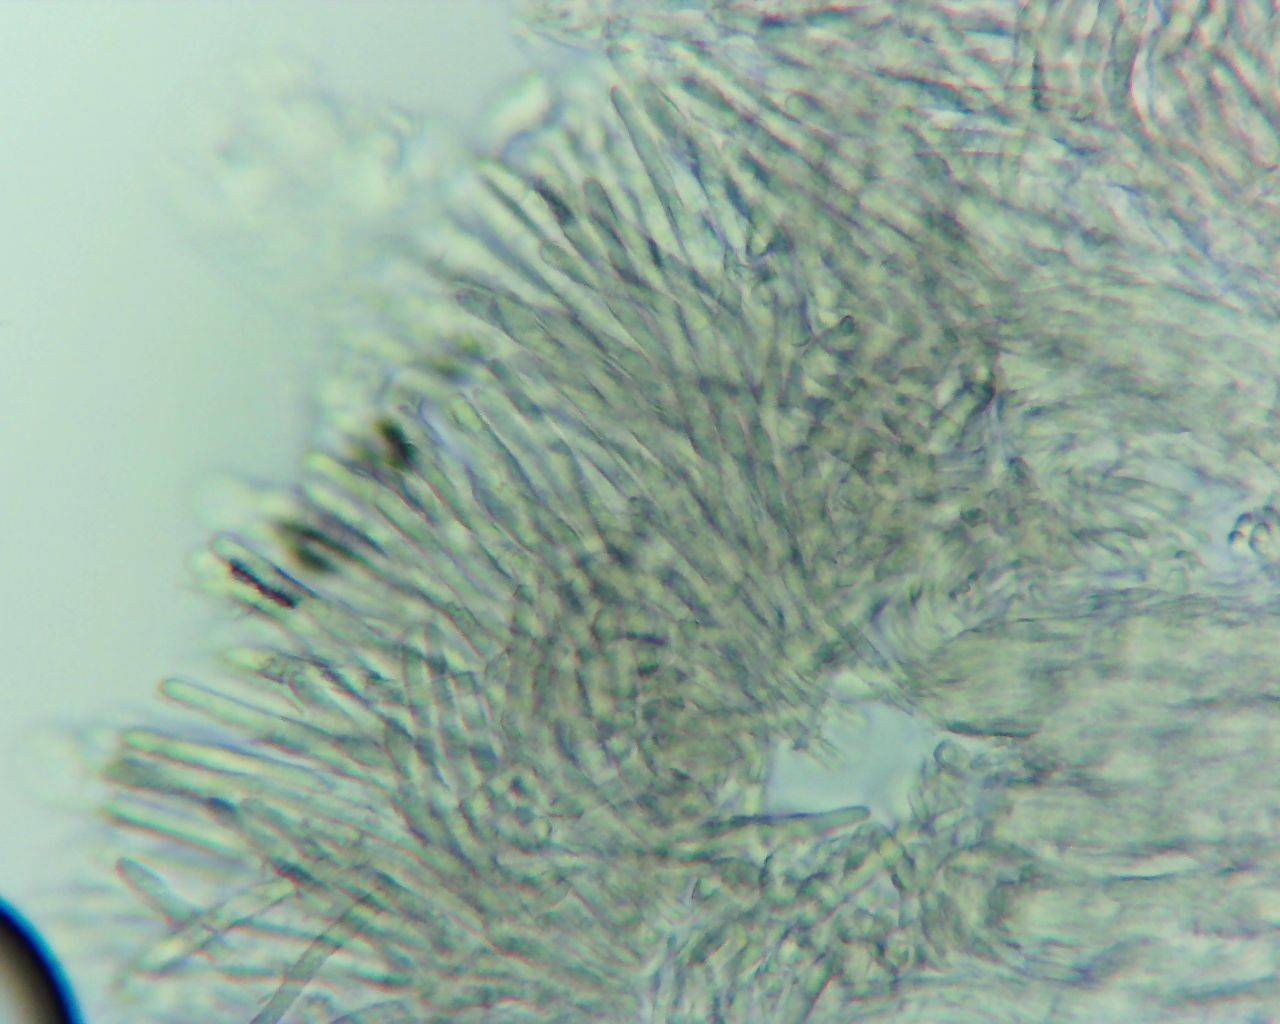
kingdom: Fungi
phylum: Ascomycota
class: Leotiomycetes
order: Helotiales
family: Lachnaceae
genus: Lachnum
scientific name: Lachnum
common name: frynseskive
